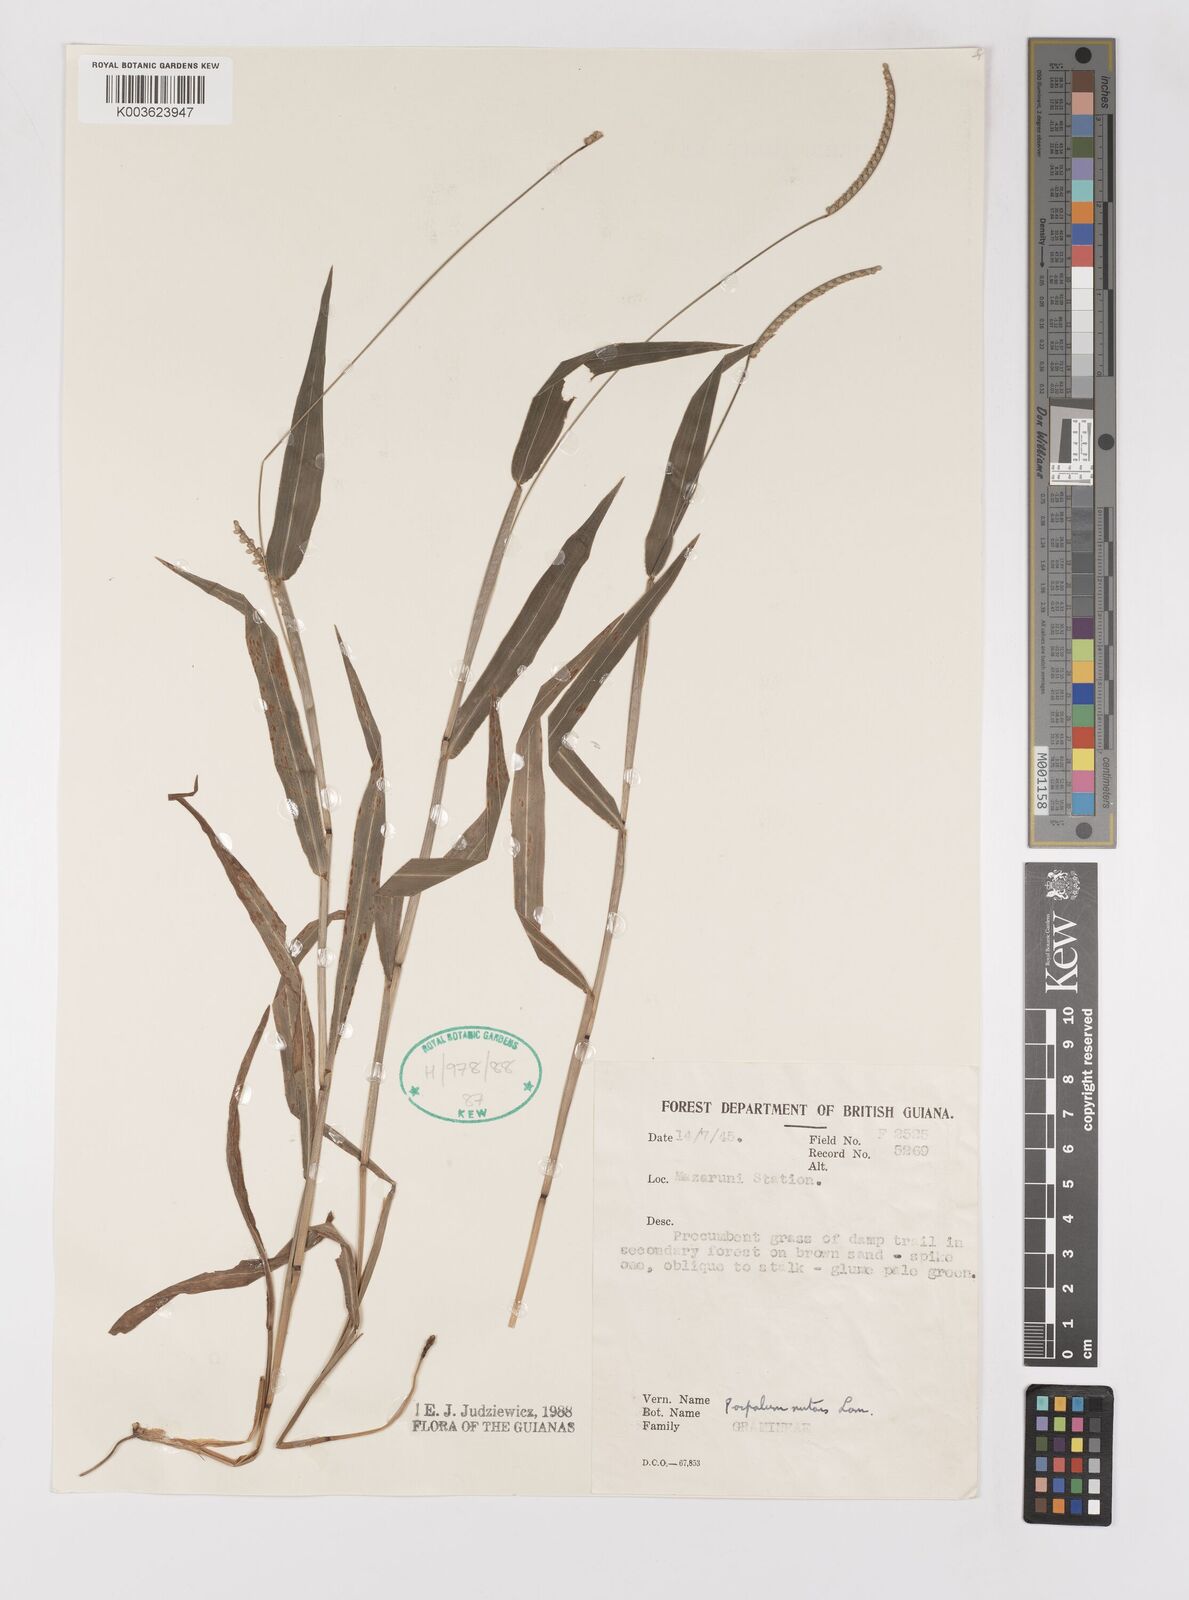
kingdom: Plantae
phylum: Tracheophyta
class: Liliopsida
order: Poales
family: Poaceae
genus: Paspalum
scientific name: Paspalum nutans
